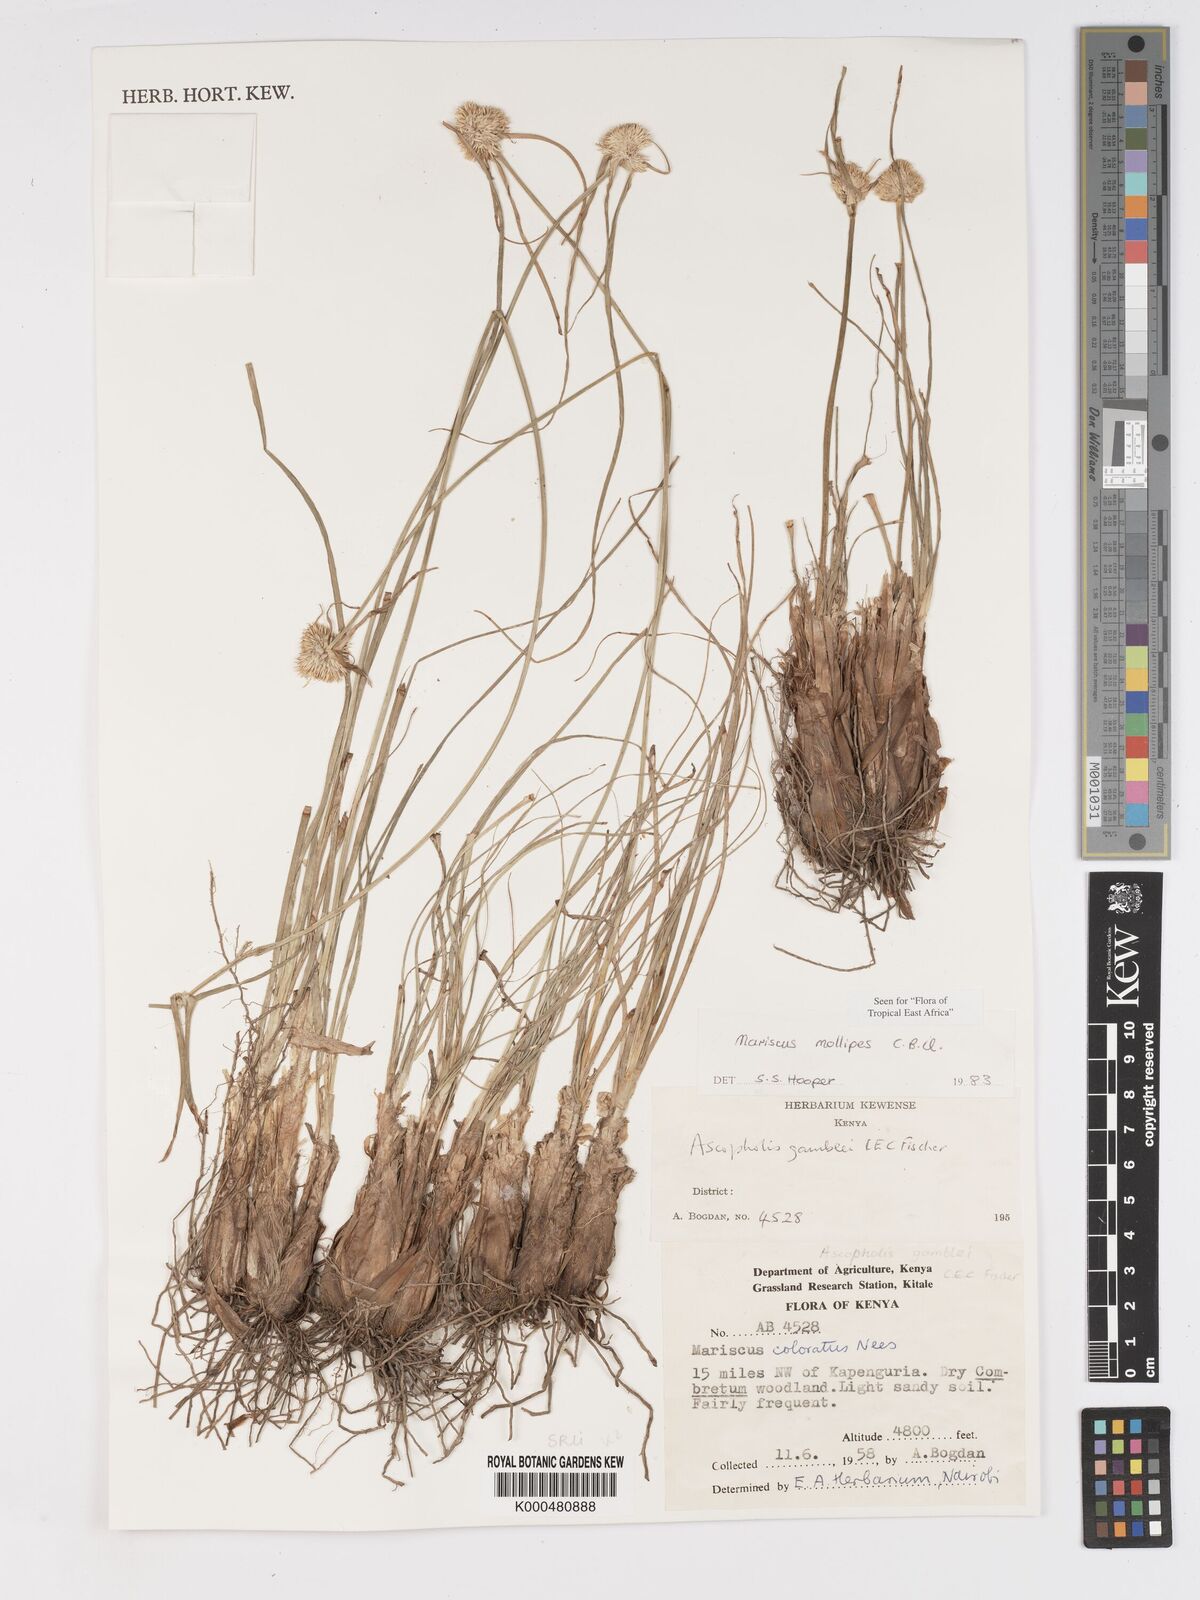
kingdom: Plantae
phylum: Tracheophyta
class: Liliopsida
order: Poales
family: Cyperaceae
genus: Cyperus
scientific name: Cyperus mollipes
